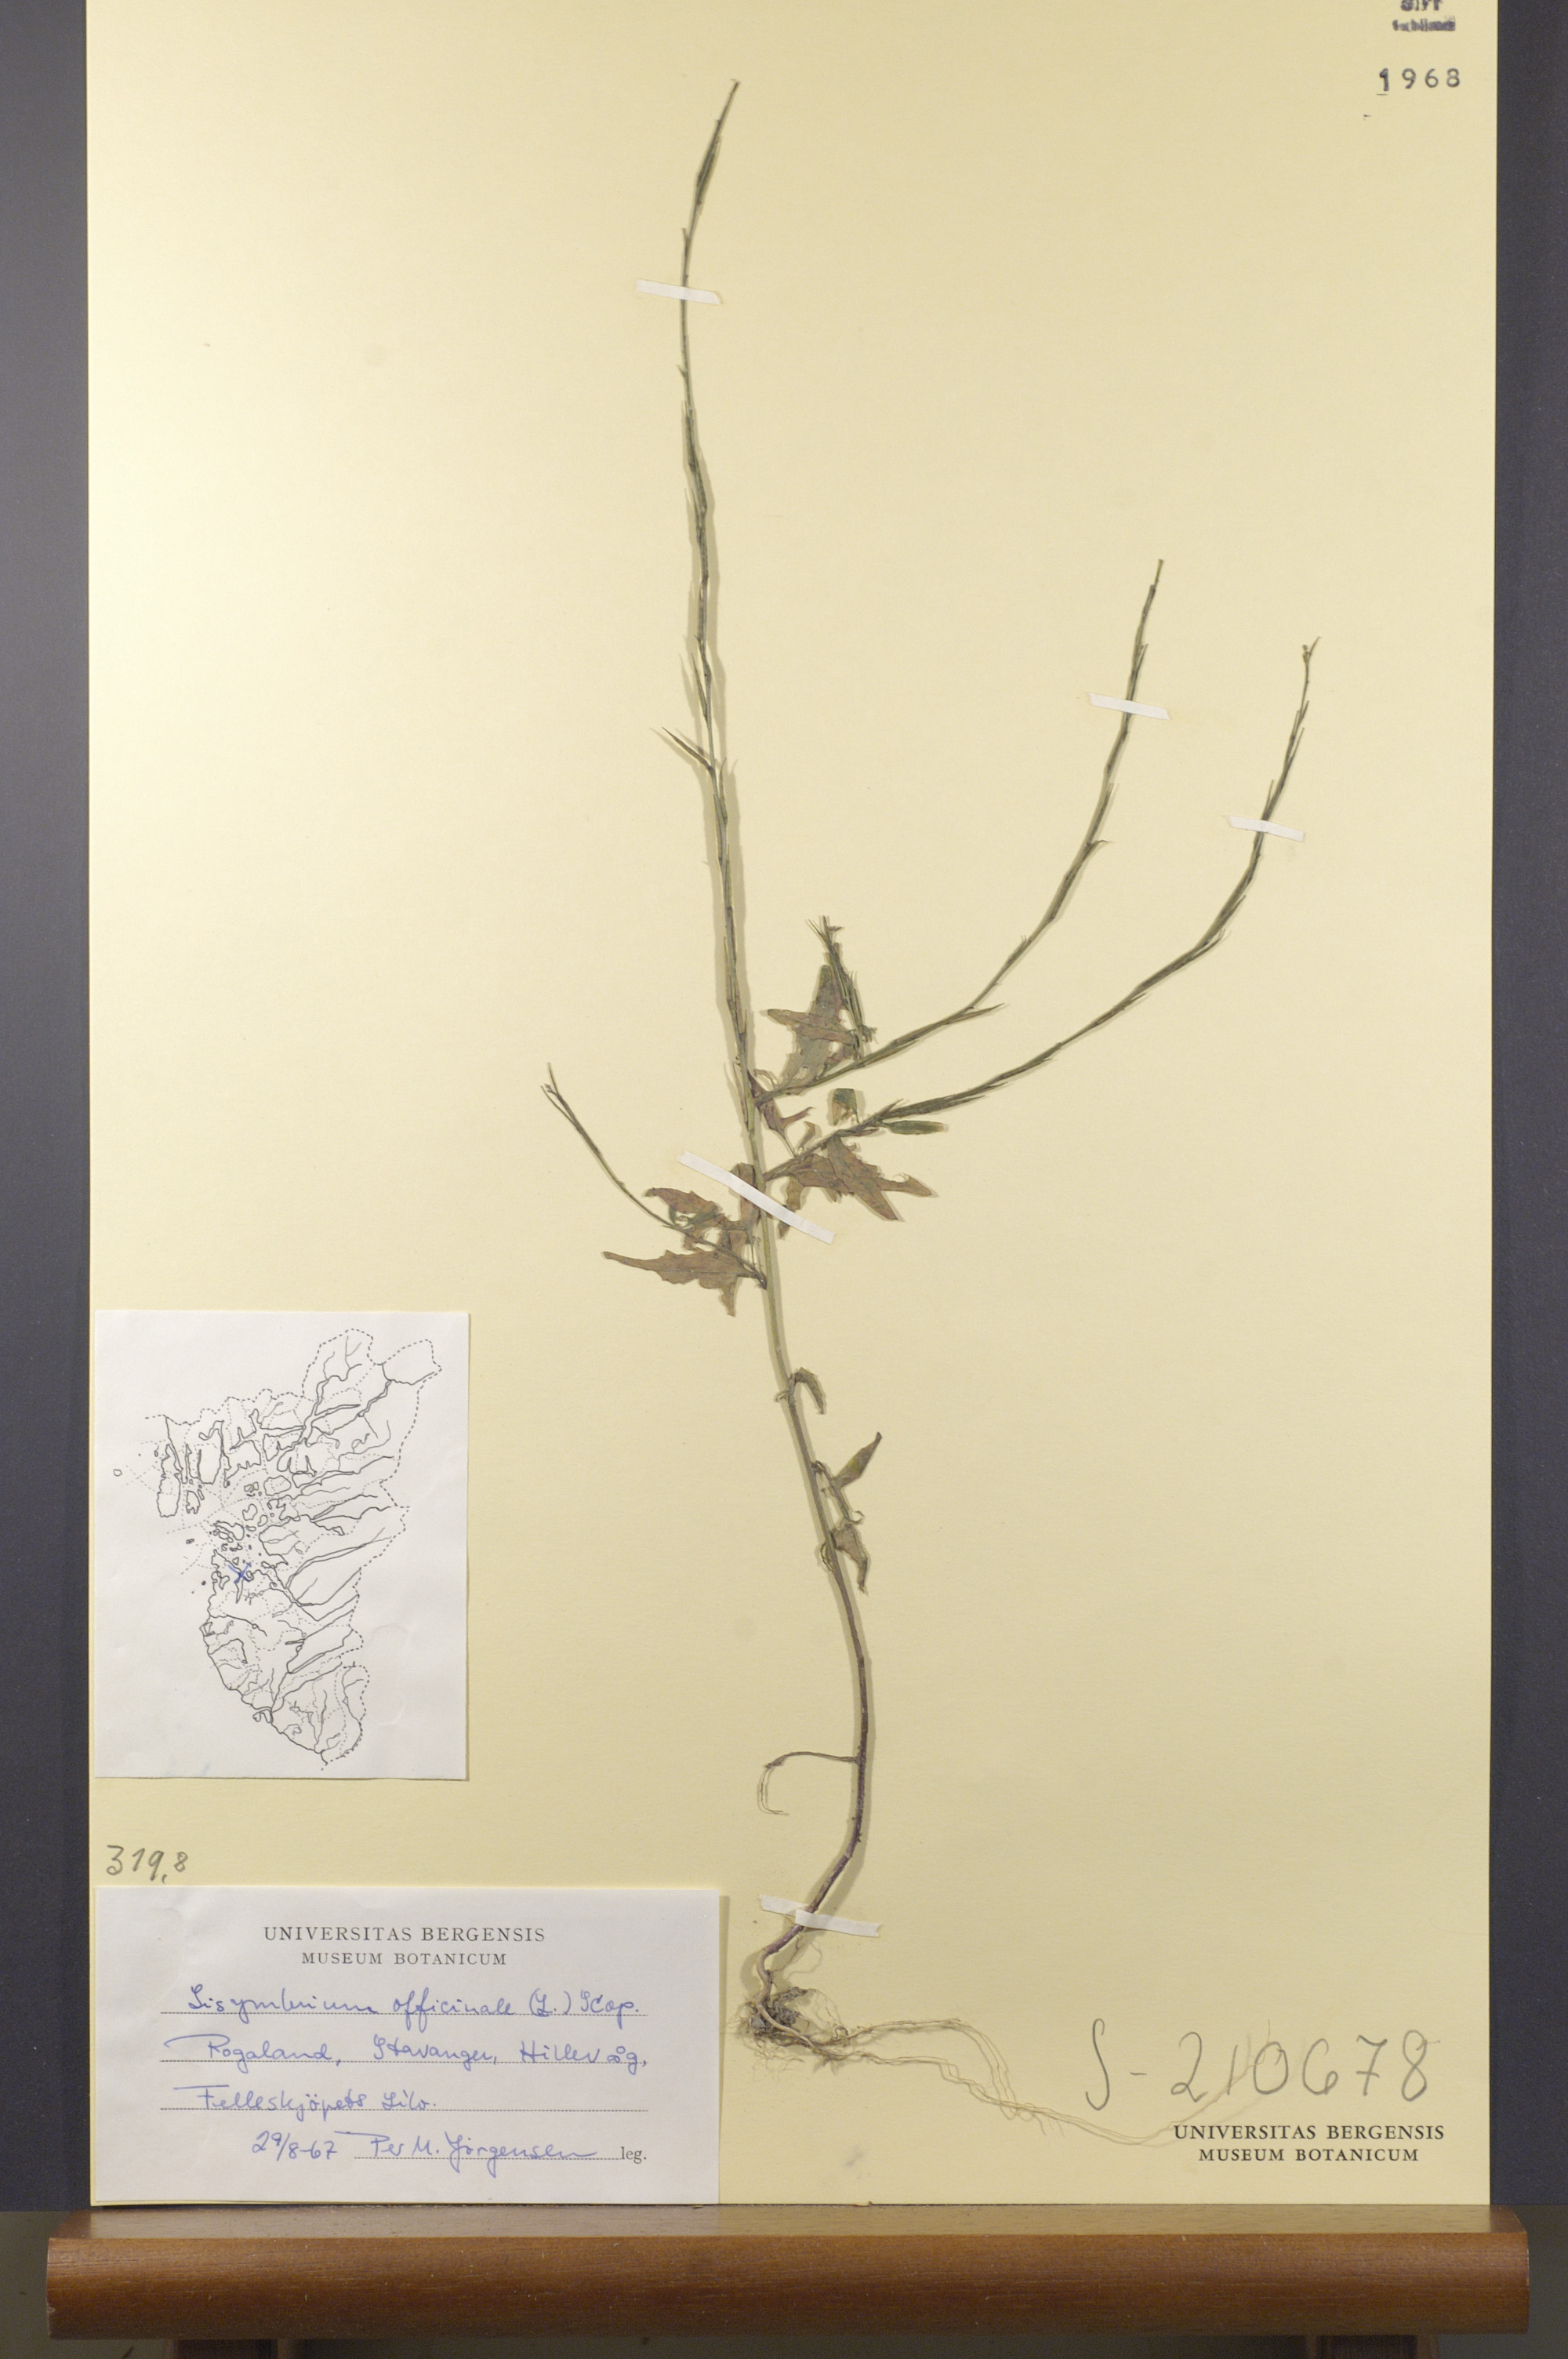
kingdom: Plantae
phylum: Tracheophyta
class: Magnoliopsida
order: Brassicales
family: Brassicaceae
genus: Sisymbrium
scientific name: Sisymbrium officinale
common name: Hedge mustard
